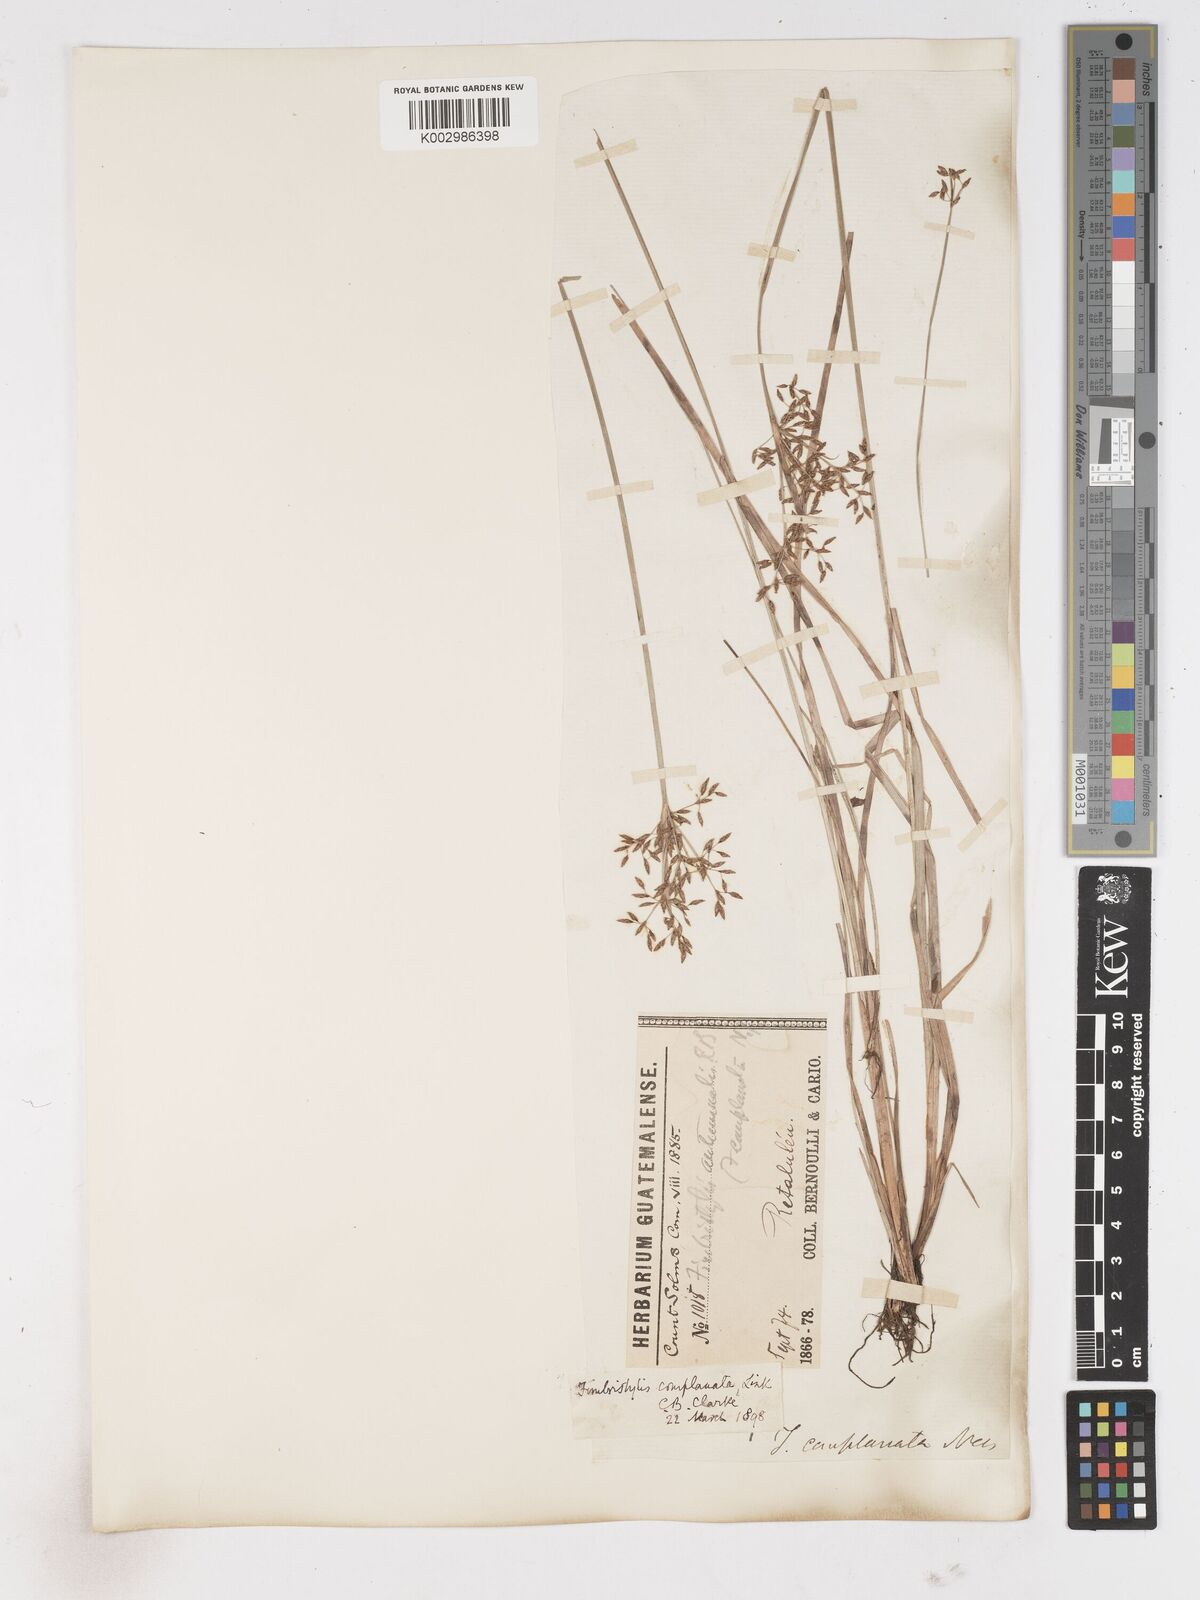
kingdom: Plantae
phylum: Tracheophyta
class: Liliopsida
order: Poales
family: Cyperaceae
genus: Fimbristylis
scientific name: Fimbristylis complanata
